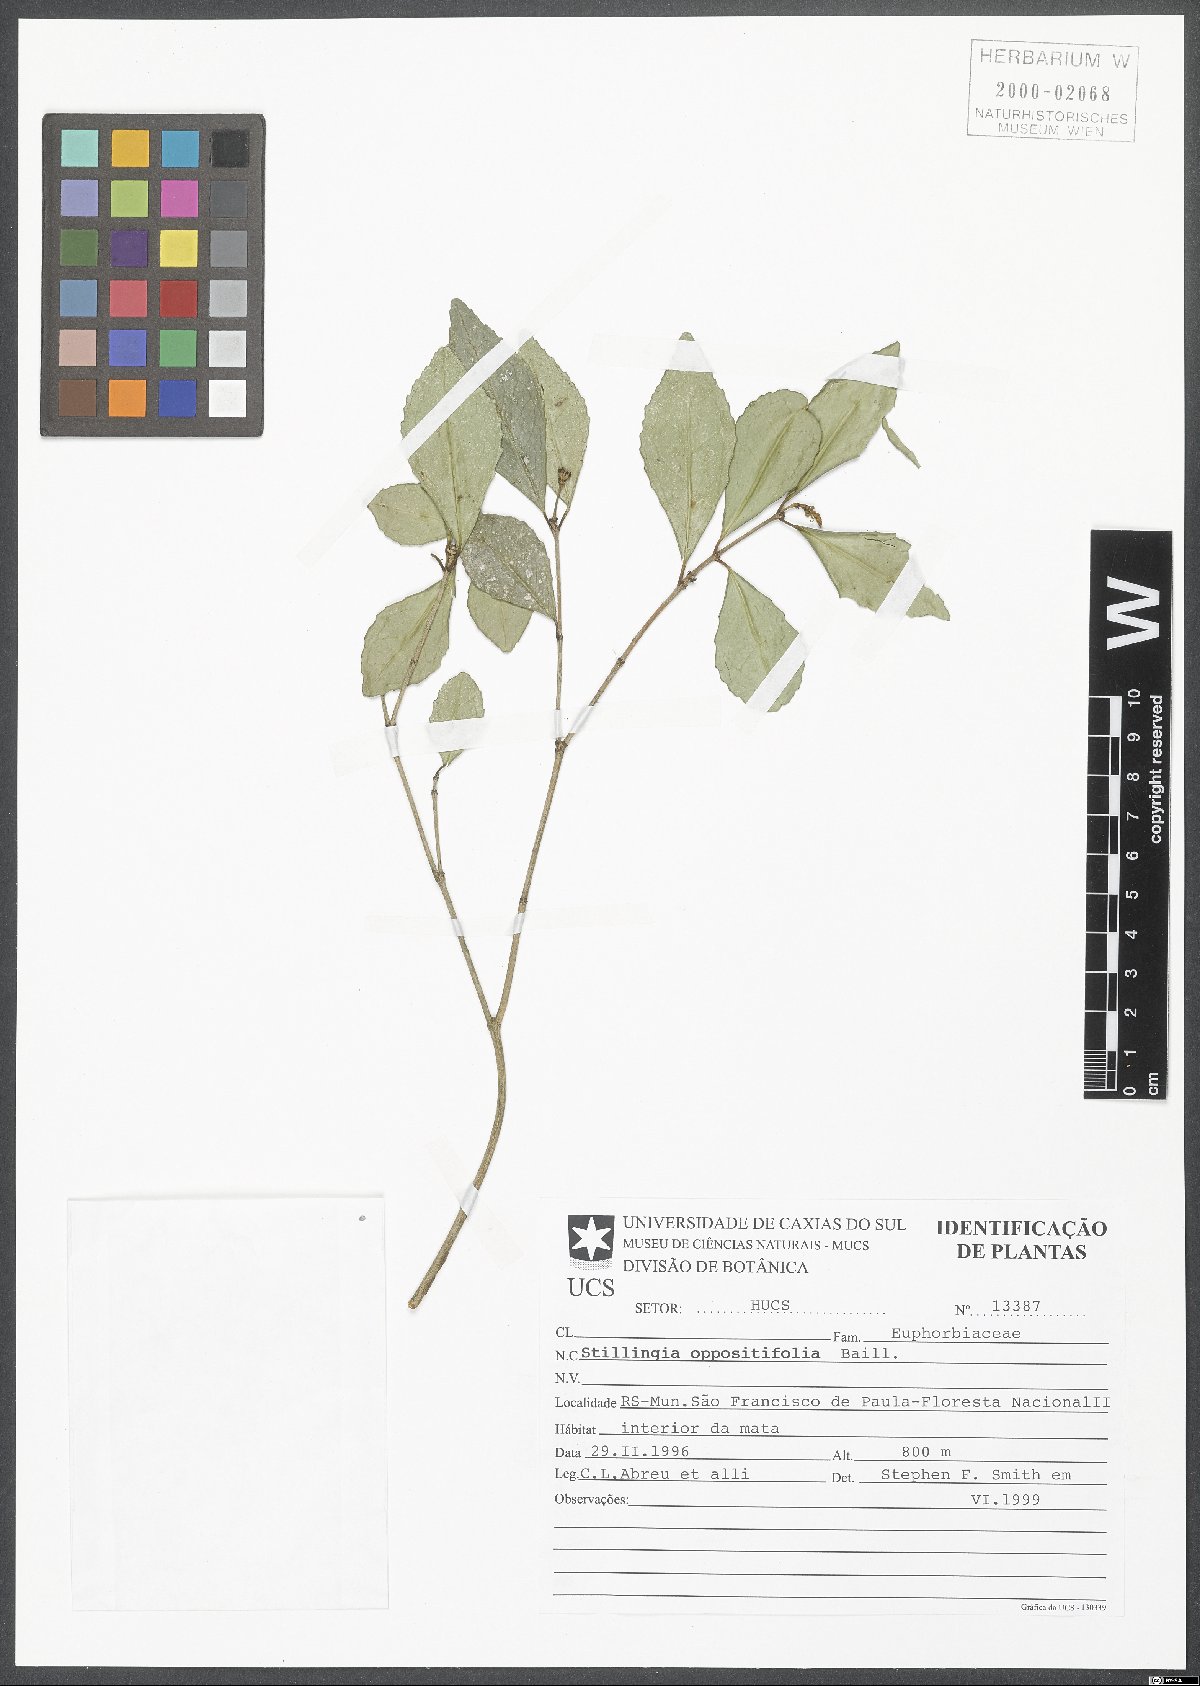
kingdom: Plantae
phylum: Tracheophyta
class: Magnoliopsida
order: Malpighiales
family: Euphorbiaceae
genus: Stillingia
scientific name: Stillingia oppositifolia
